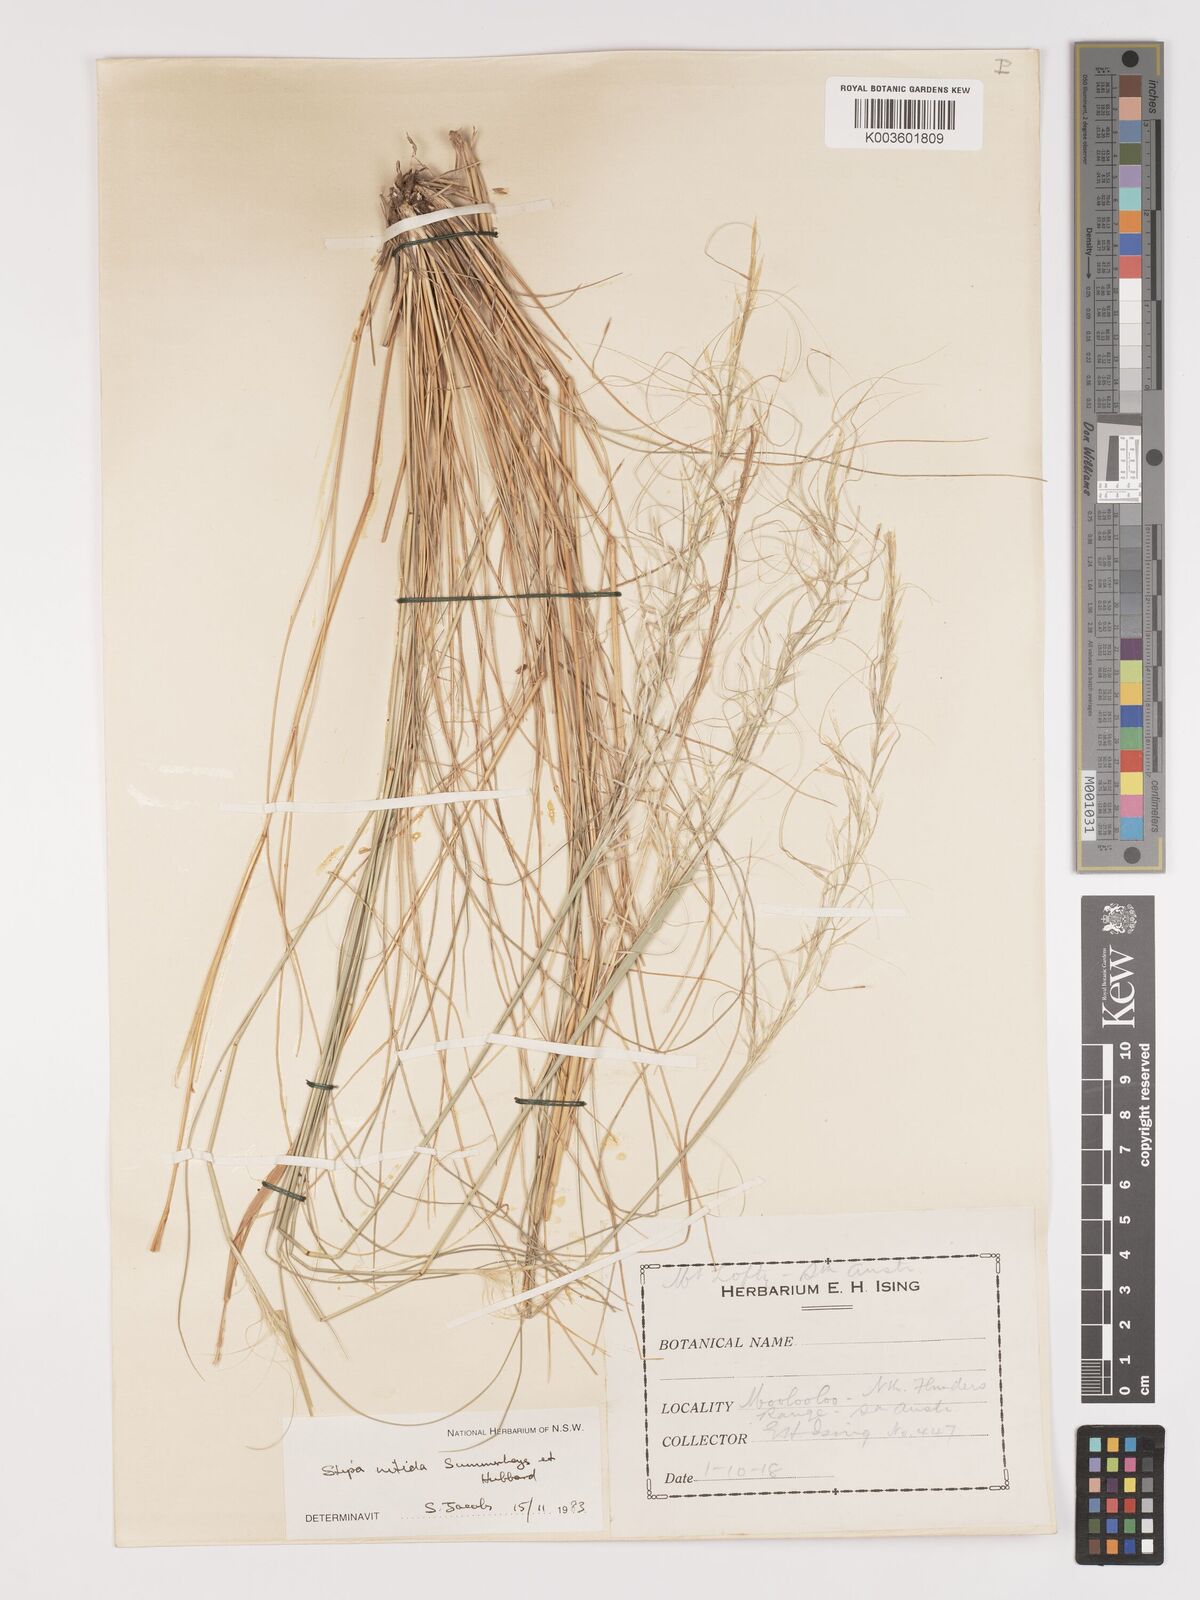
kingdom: Plantae
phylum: Tracheophyta
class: Liliopsida
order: Poales
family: Poaceae
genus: Austrostipa
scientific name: Austrostipa nitida
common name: Balcarra grass
